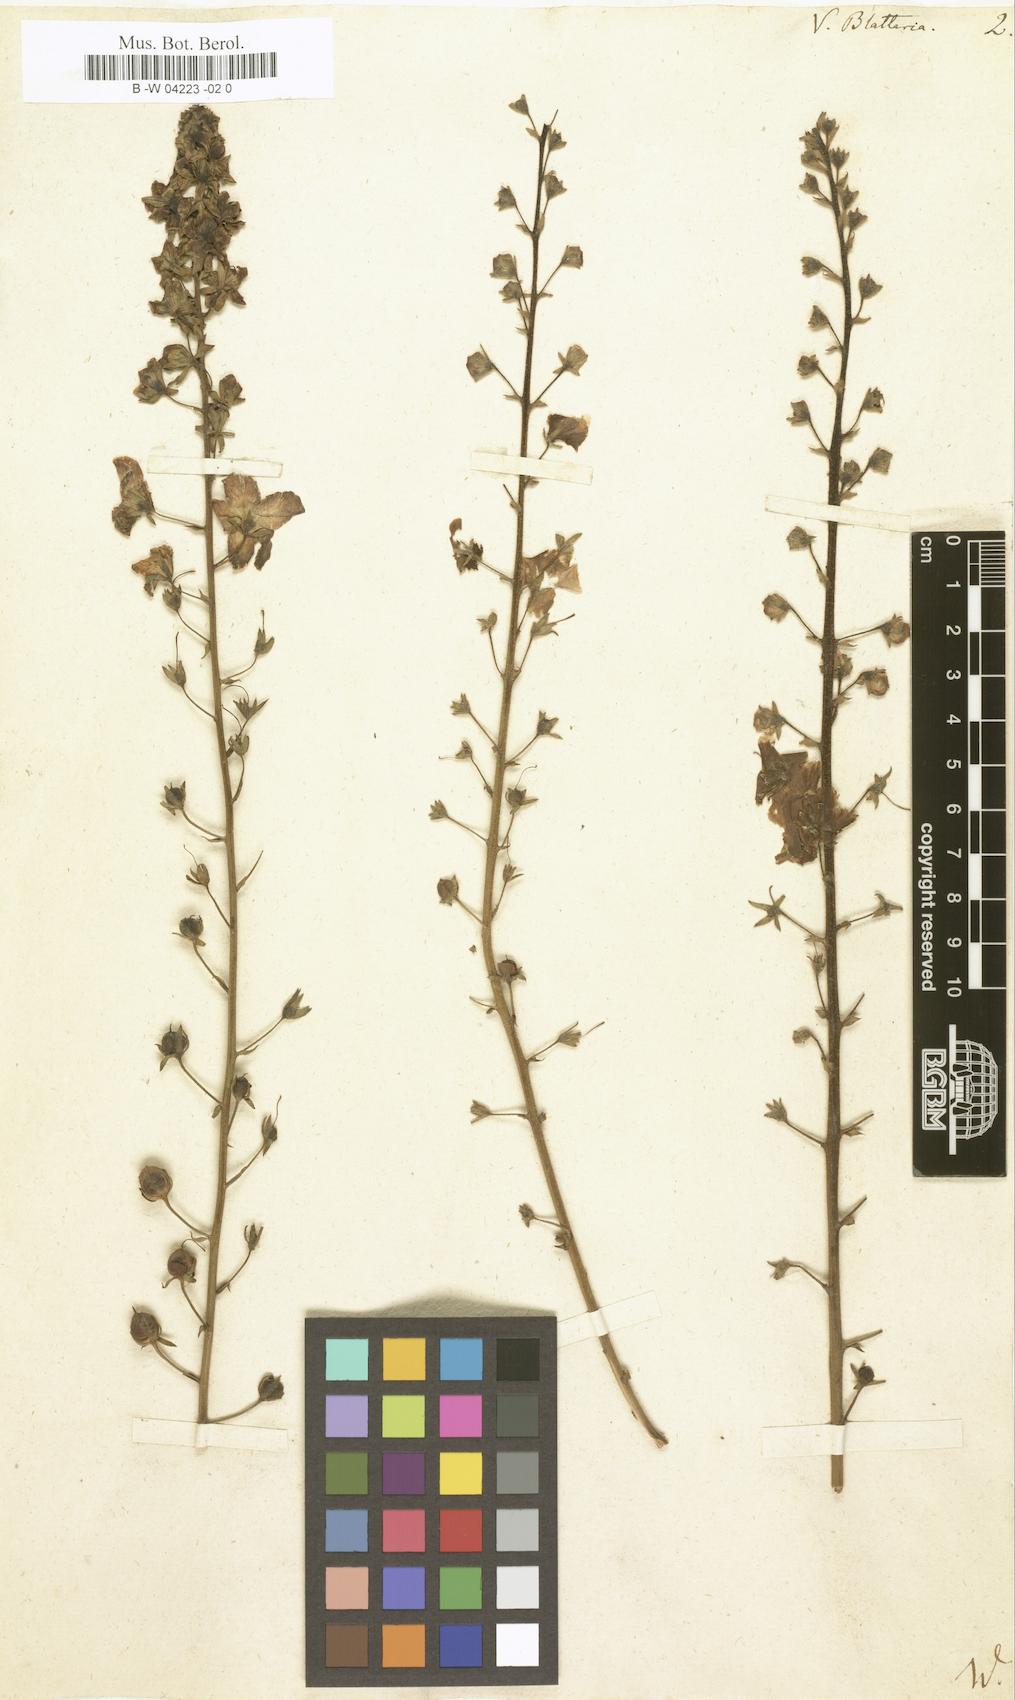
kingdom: Plantae
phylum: Tracheophyta
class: Magnoliopsida
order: Lamiales
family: Scrophulariaceae
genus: Verbascum
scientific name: Verbascum blattaria
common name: Moth mullein
